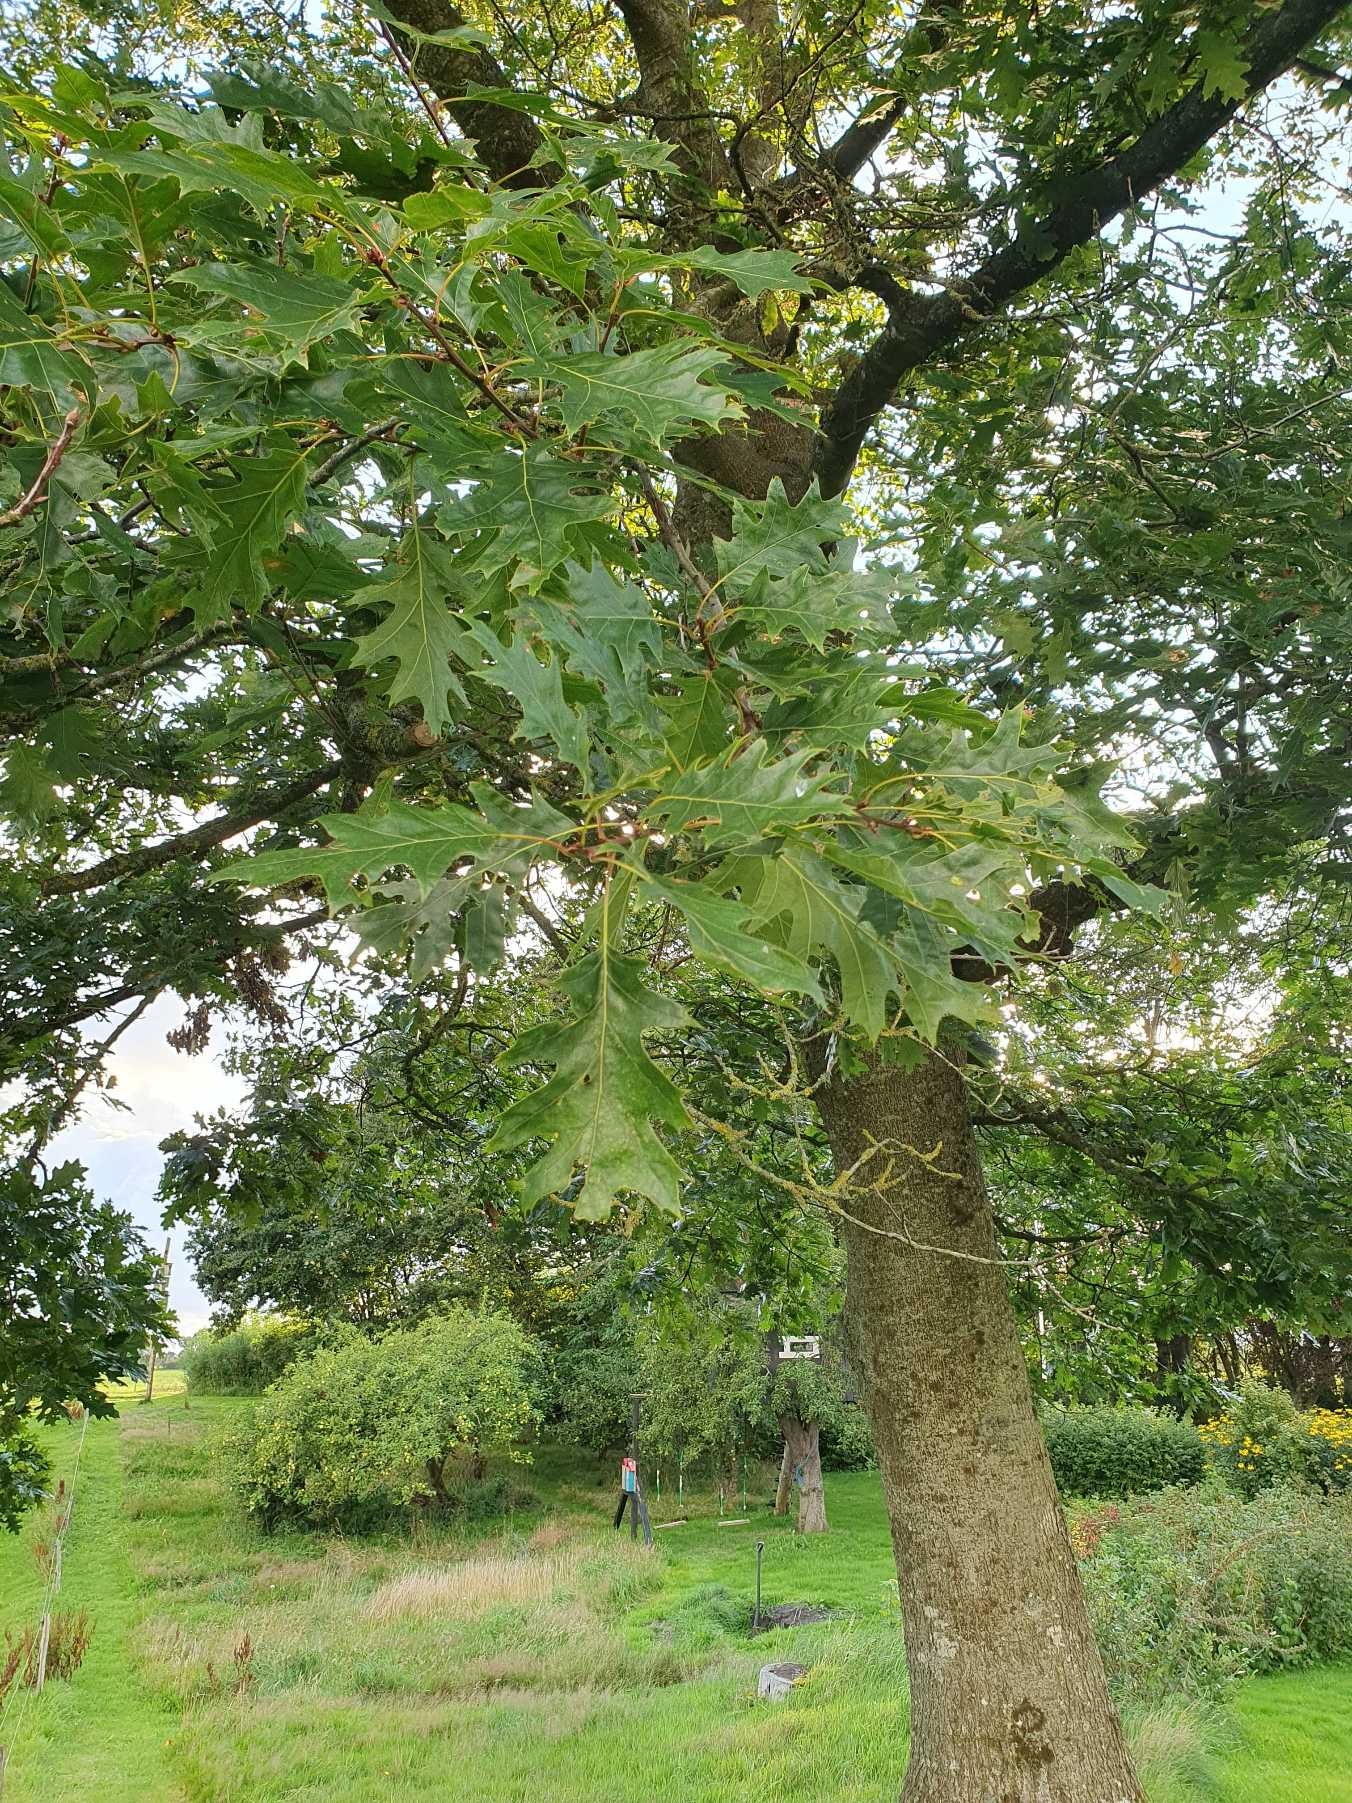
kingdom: Plantae
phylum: Tracheophyta
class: Magnoliopsida
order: Fagales
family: Fagaceae
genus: Quercus
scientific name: Quercus rubra
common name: Rød-eg
